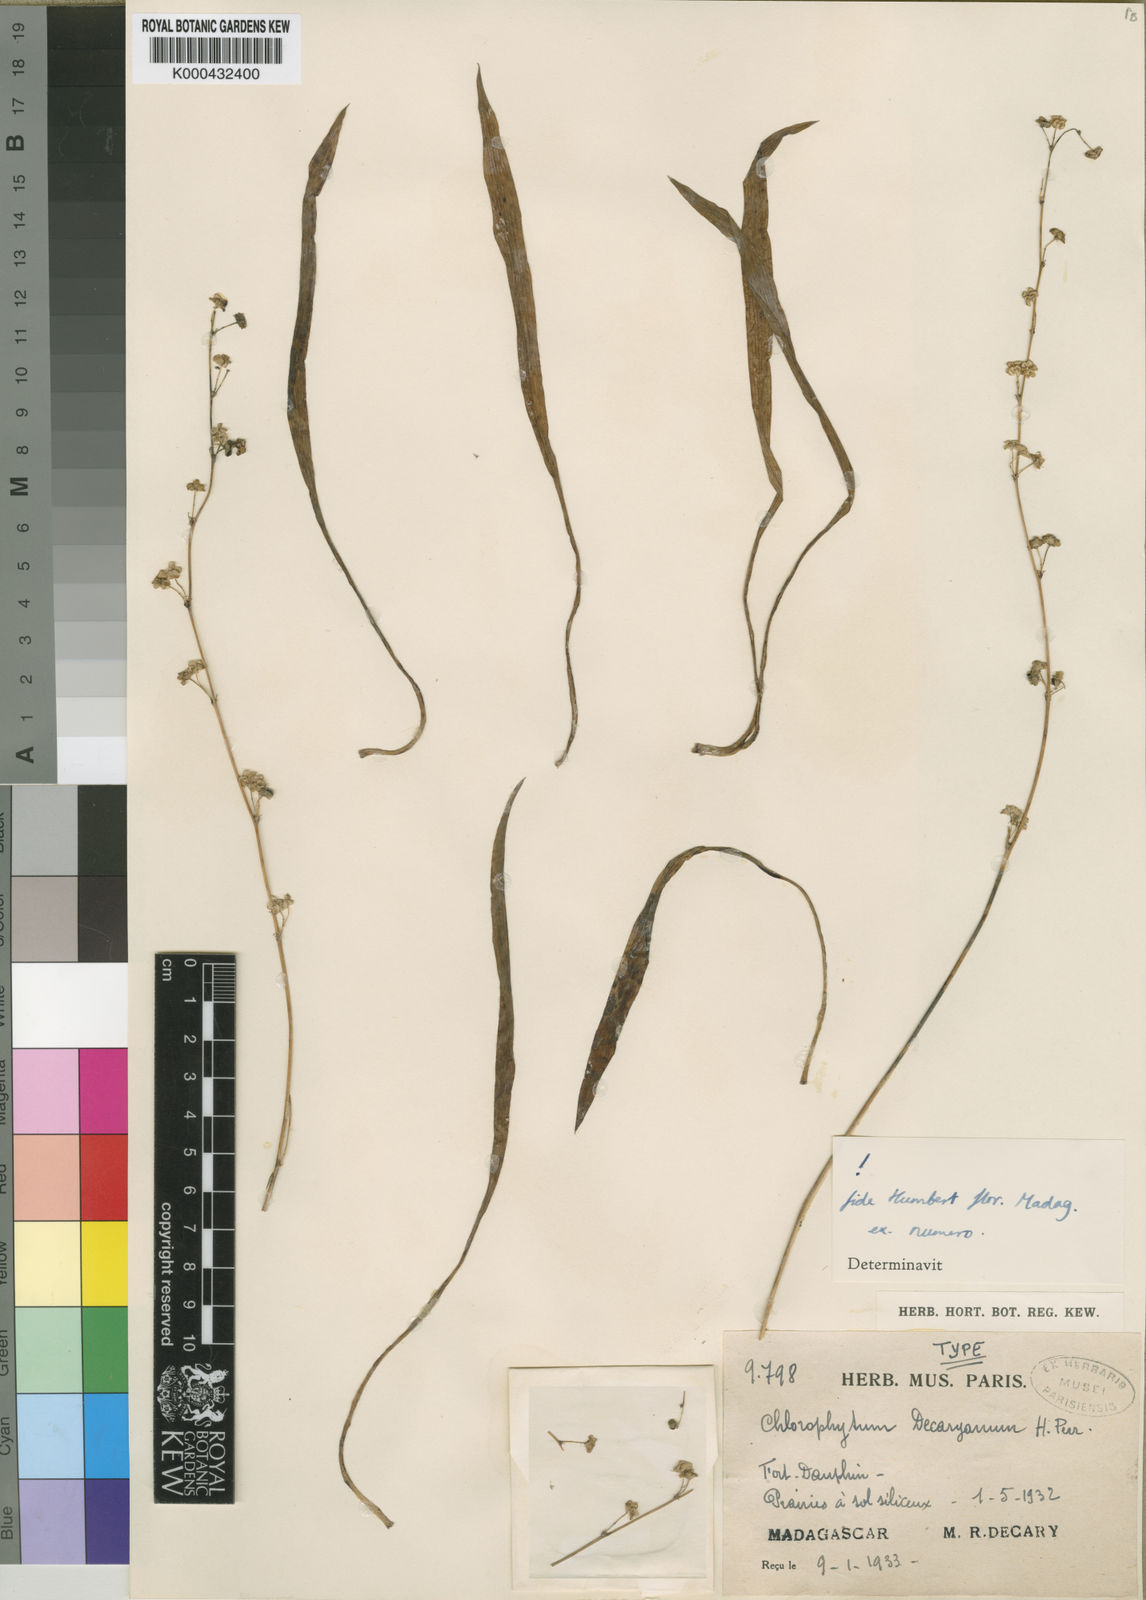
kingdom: Plantae
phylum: Tracheophyta
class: Liliopsida
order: Asparagales
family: Asparagaceae
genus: Chlorophytum
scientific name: Chlorophytum decaryanum
